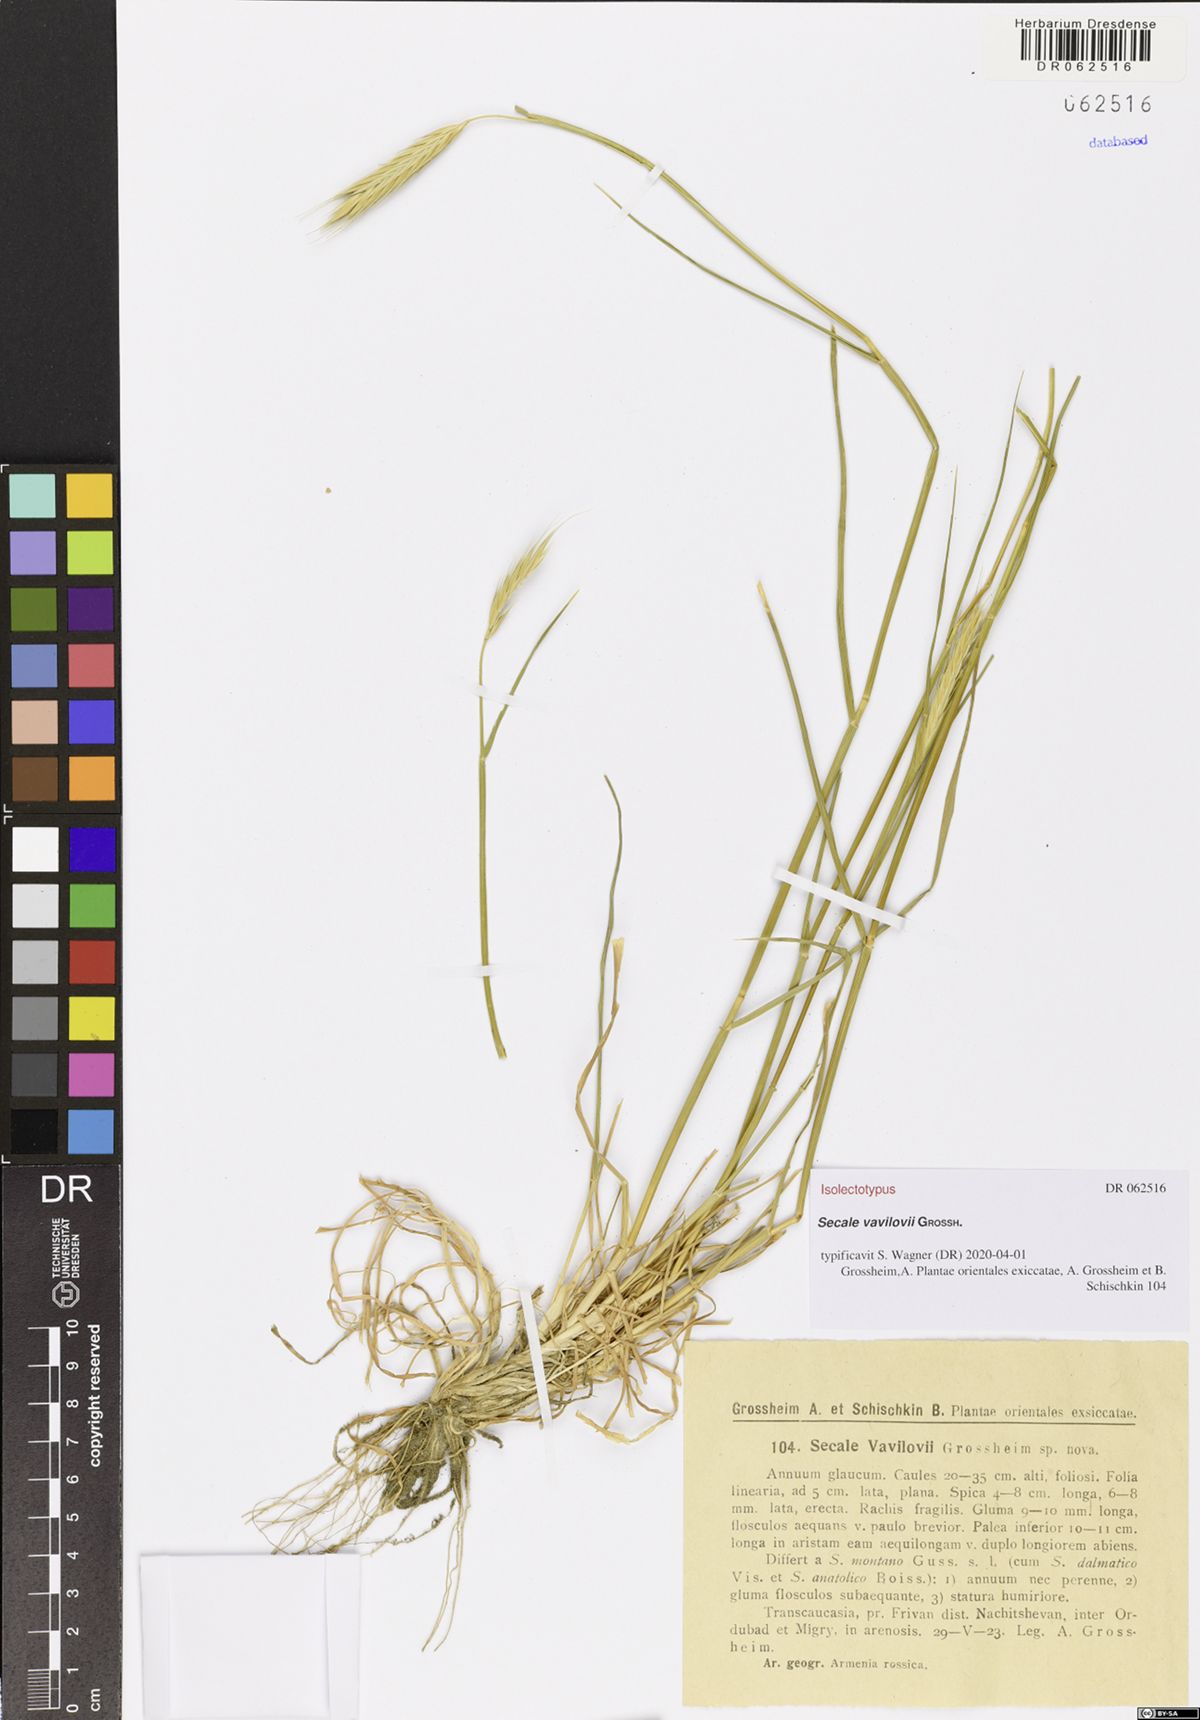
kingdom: Plantae
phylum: Tracheophyta
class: Liliopsida
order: Poales
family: Poaceae
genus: Secale
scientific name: Secale vavilovii
